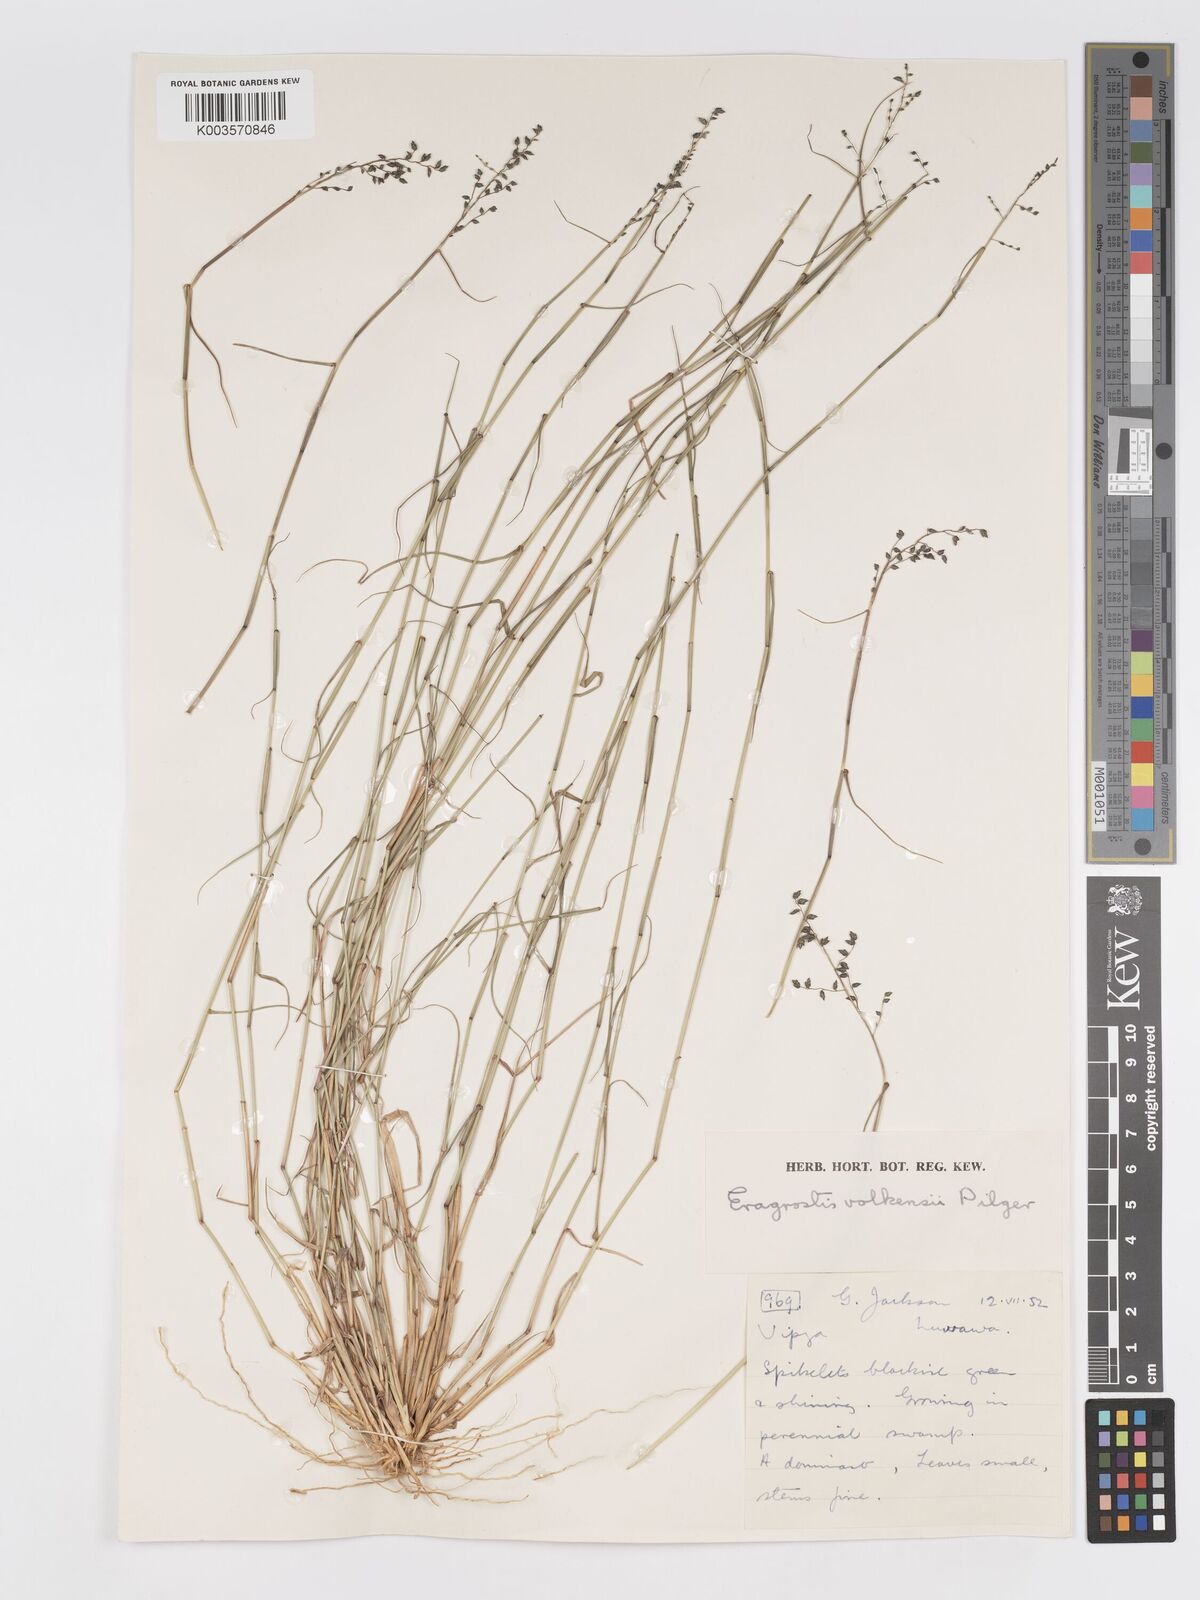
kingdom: Plantae
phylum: Tracheophyta
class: Liliopsida
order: Poales
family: Poaceae
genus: Eragrostis
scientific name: Eragrostis volkensii
